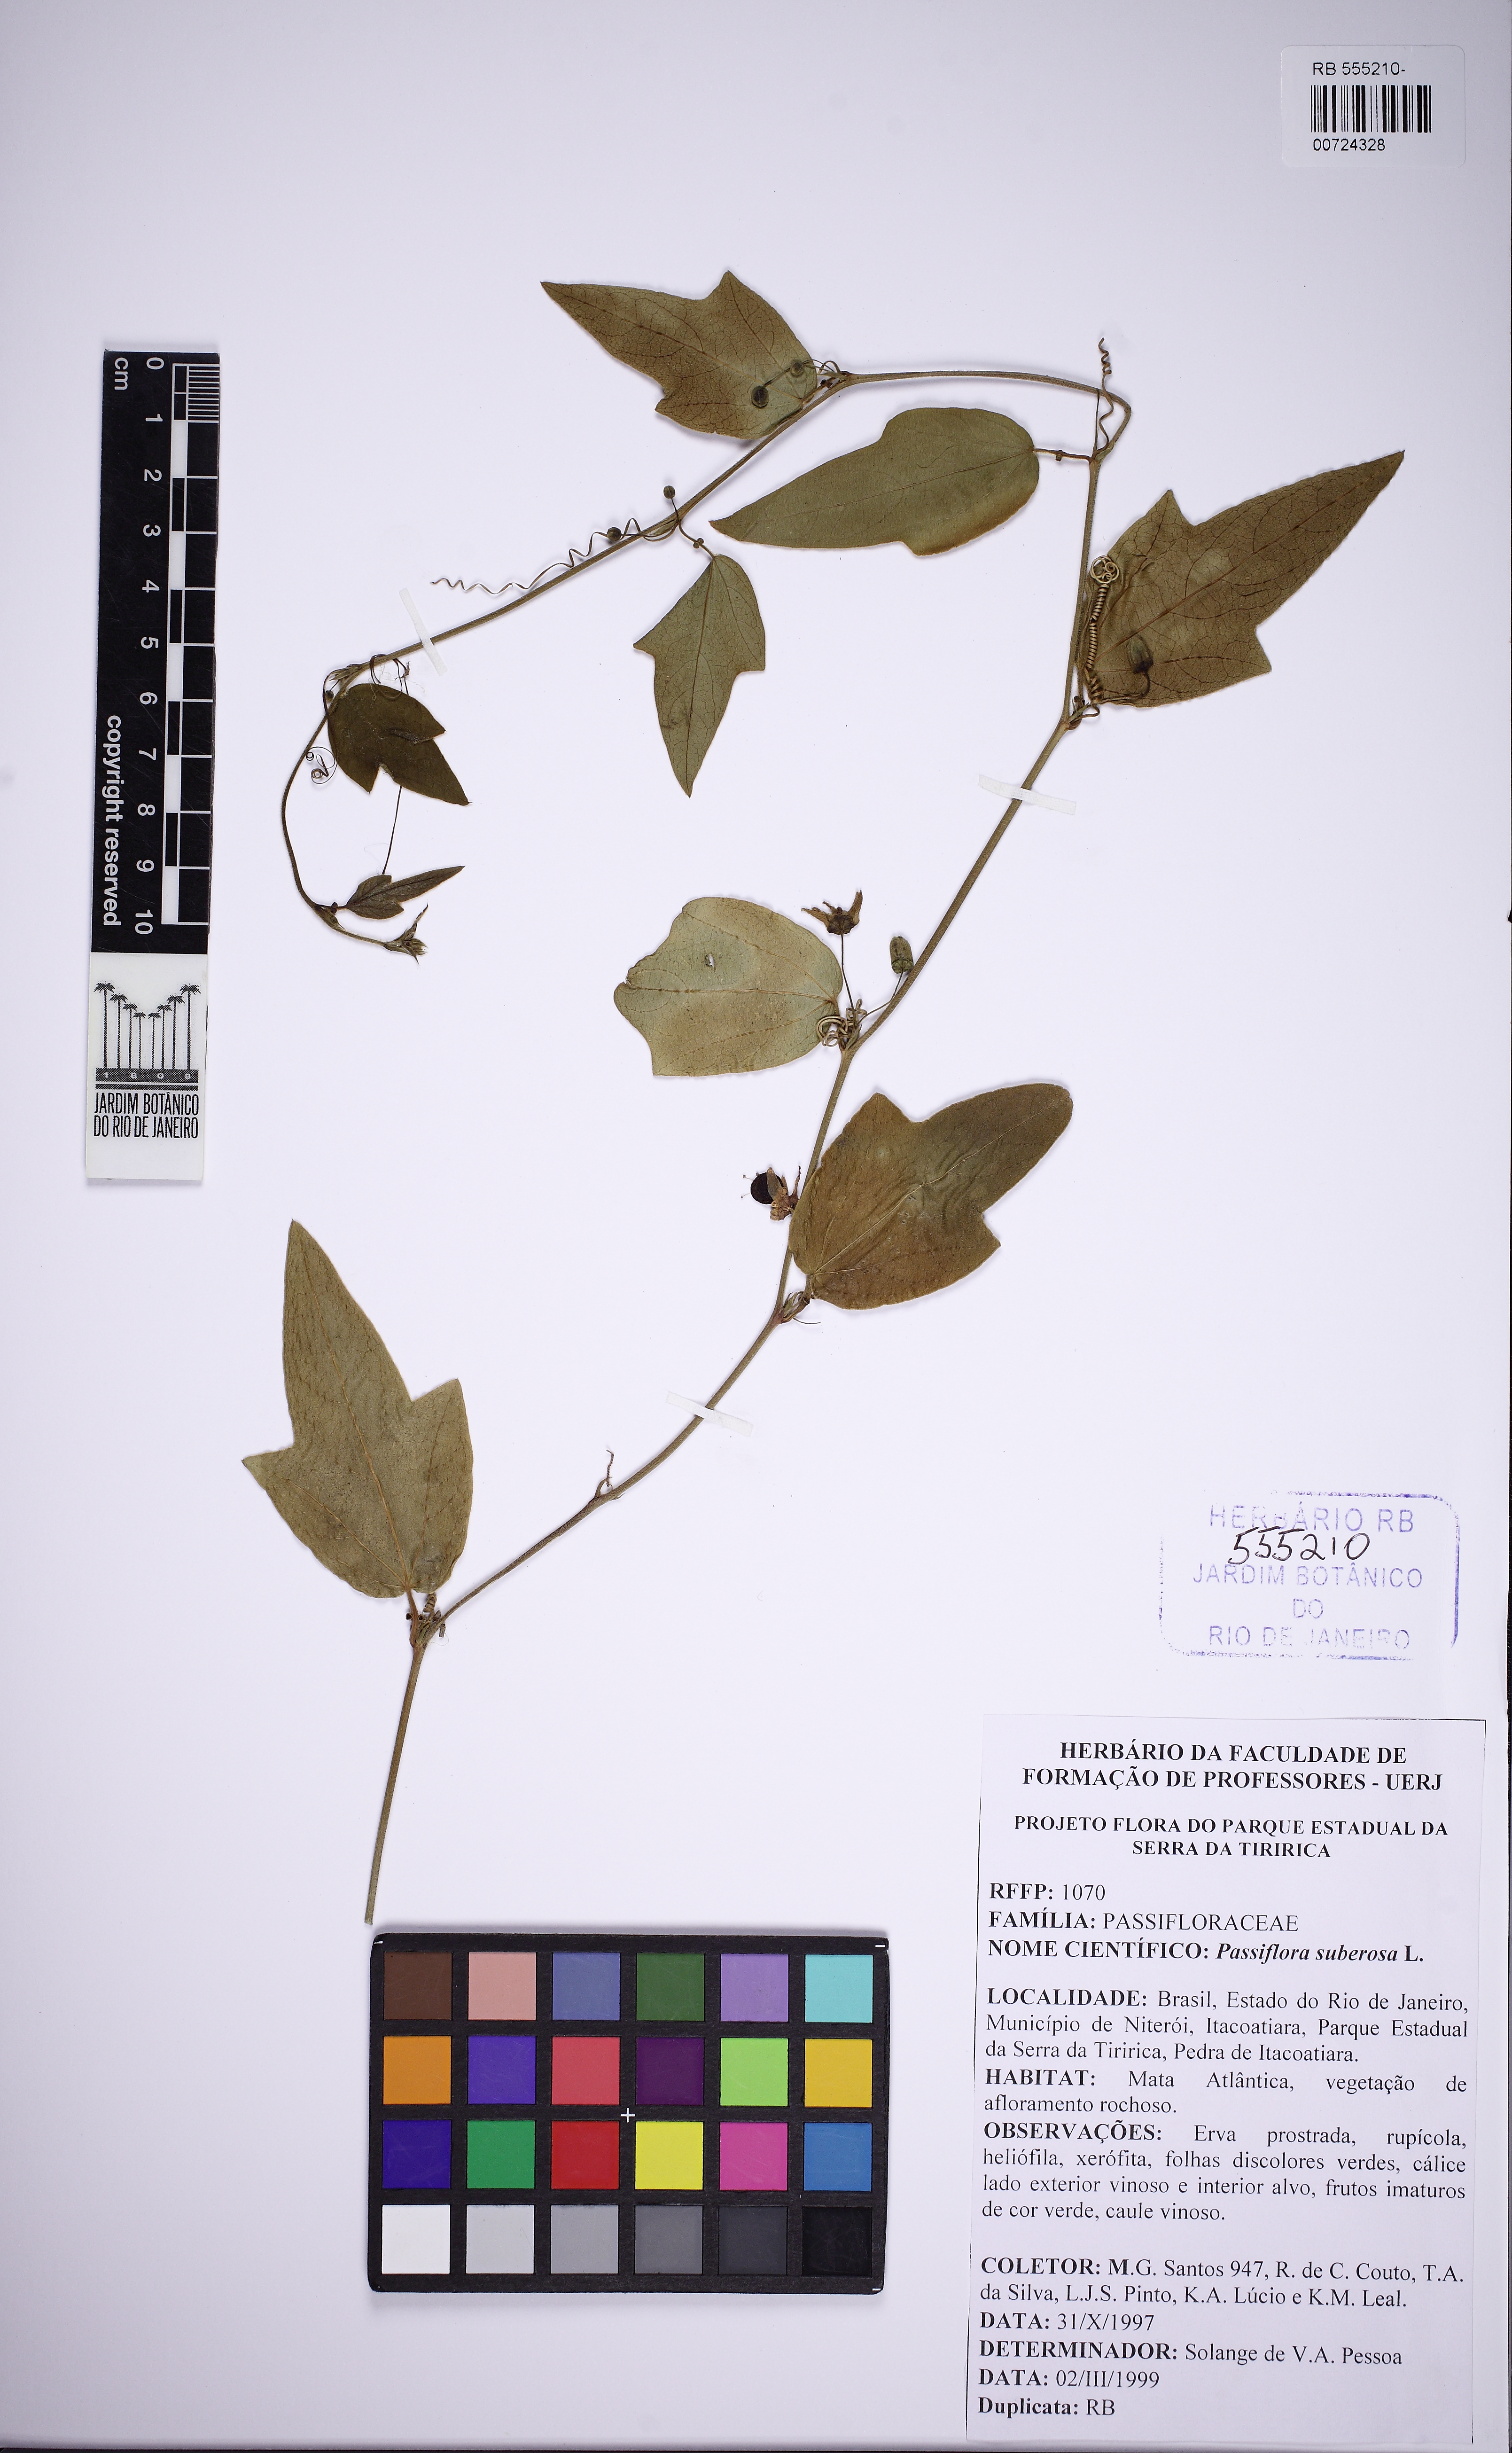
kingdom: Plantae
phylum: Tracheophyta
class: Magnoliopsida
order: Malpighiales
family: Passifloraceae
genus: Passiflora
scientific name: Passiflora suberosa
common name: Wild passionfruit
